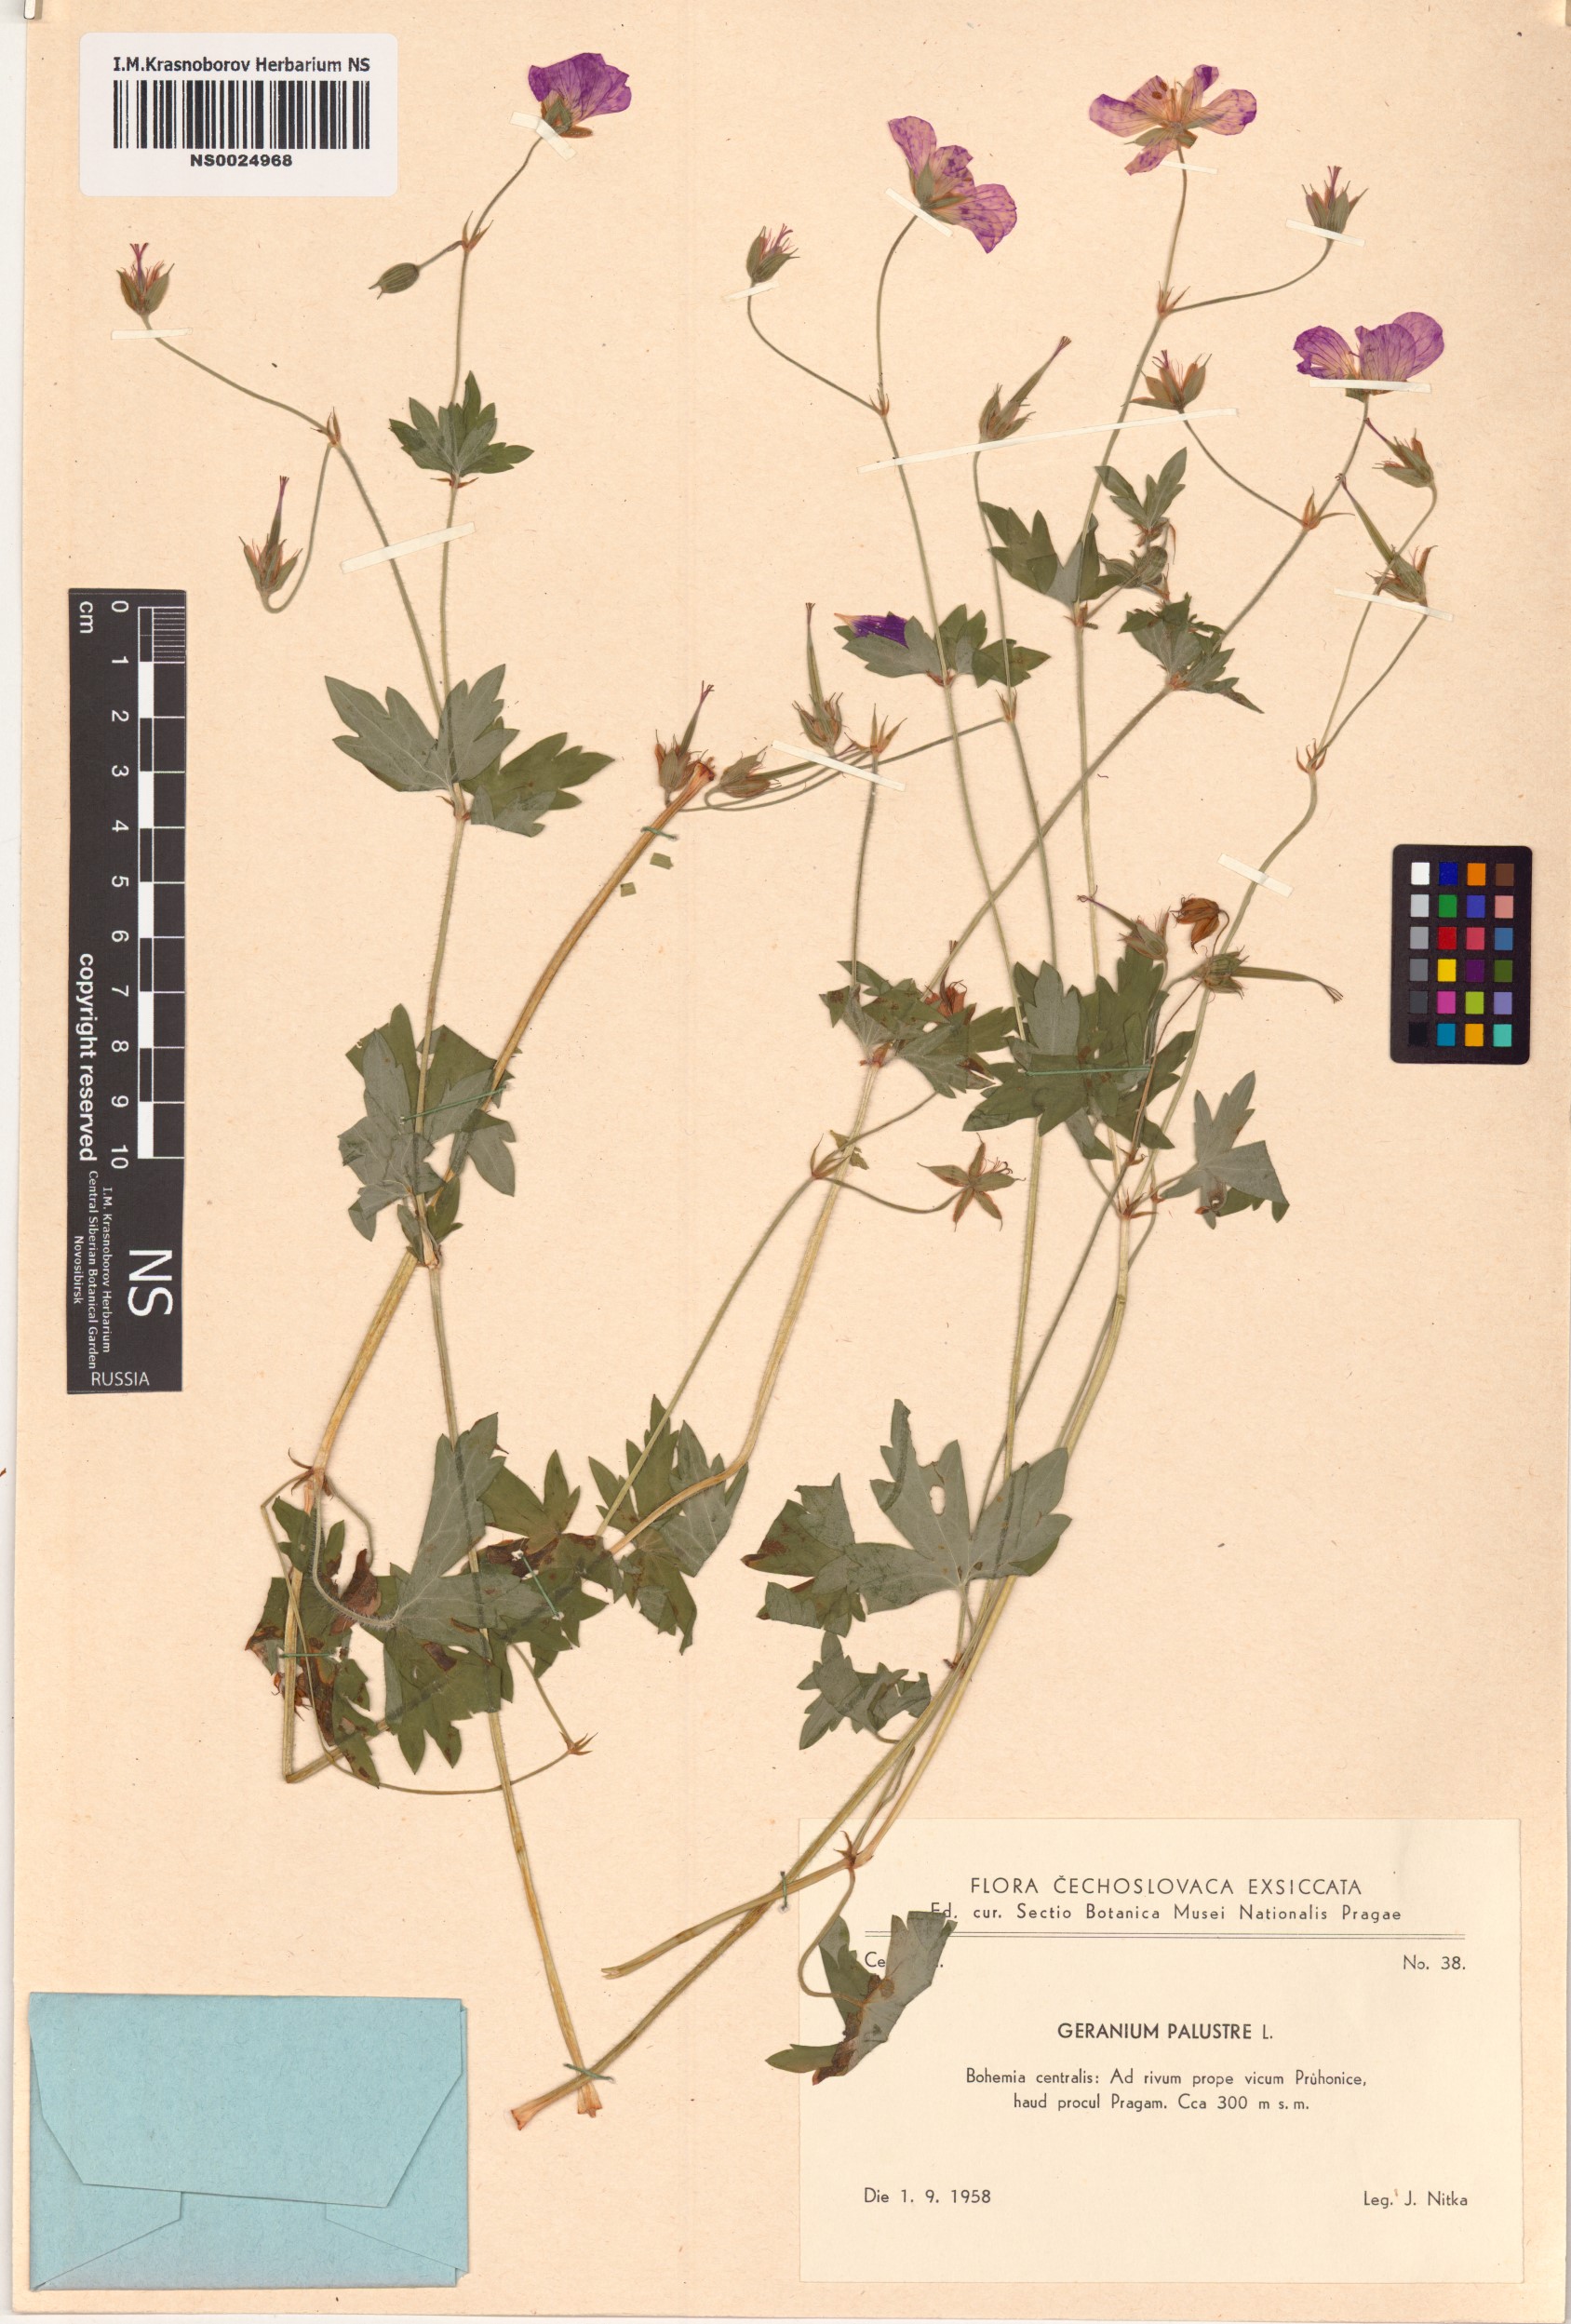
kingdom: Plantae
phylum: Tracheophyta
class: Magnoliopsida
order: Geraniales
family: Geraniaceae
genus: Geranium
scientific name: Geranium palustre
